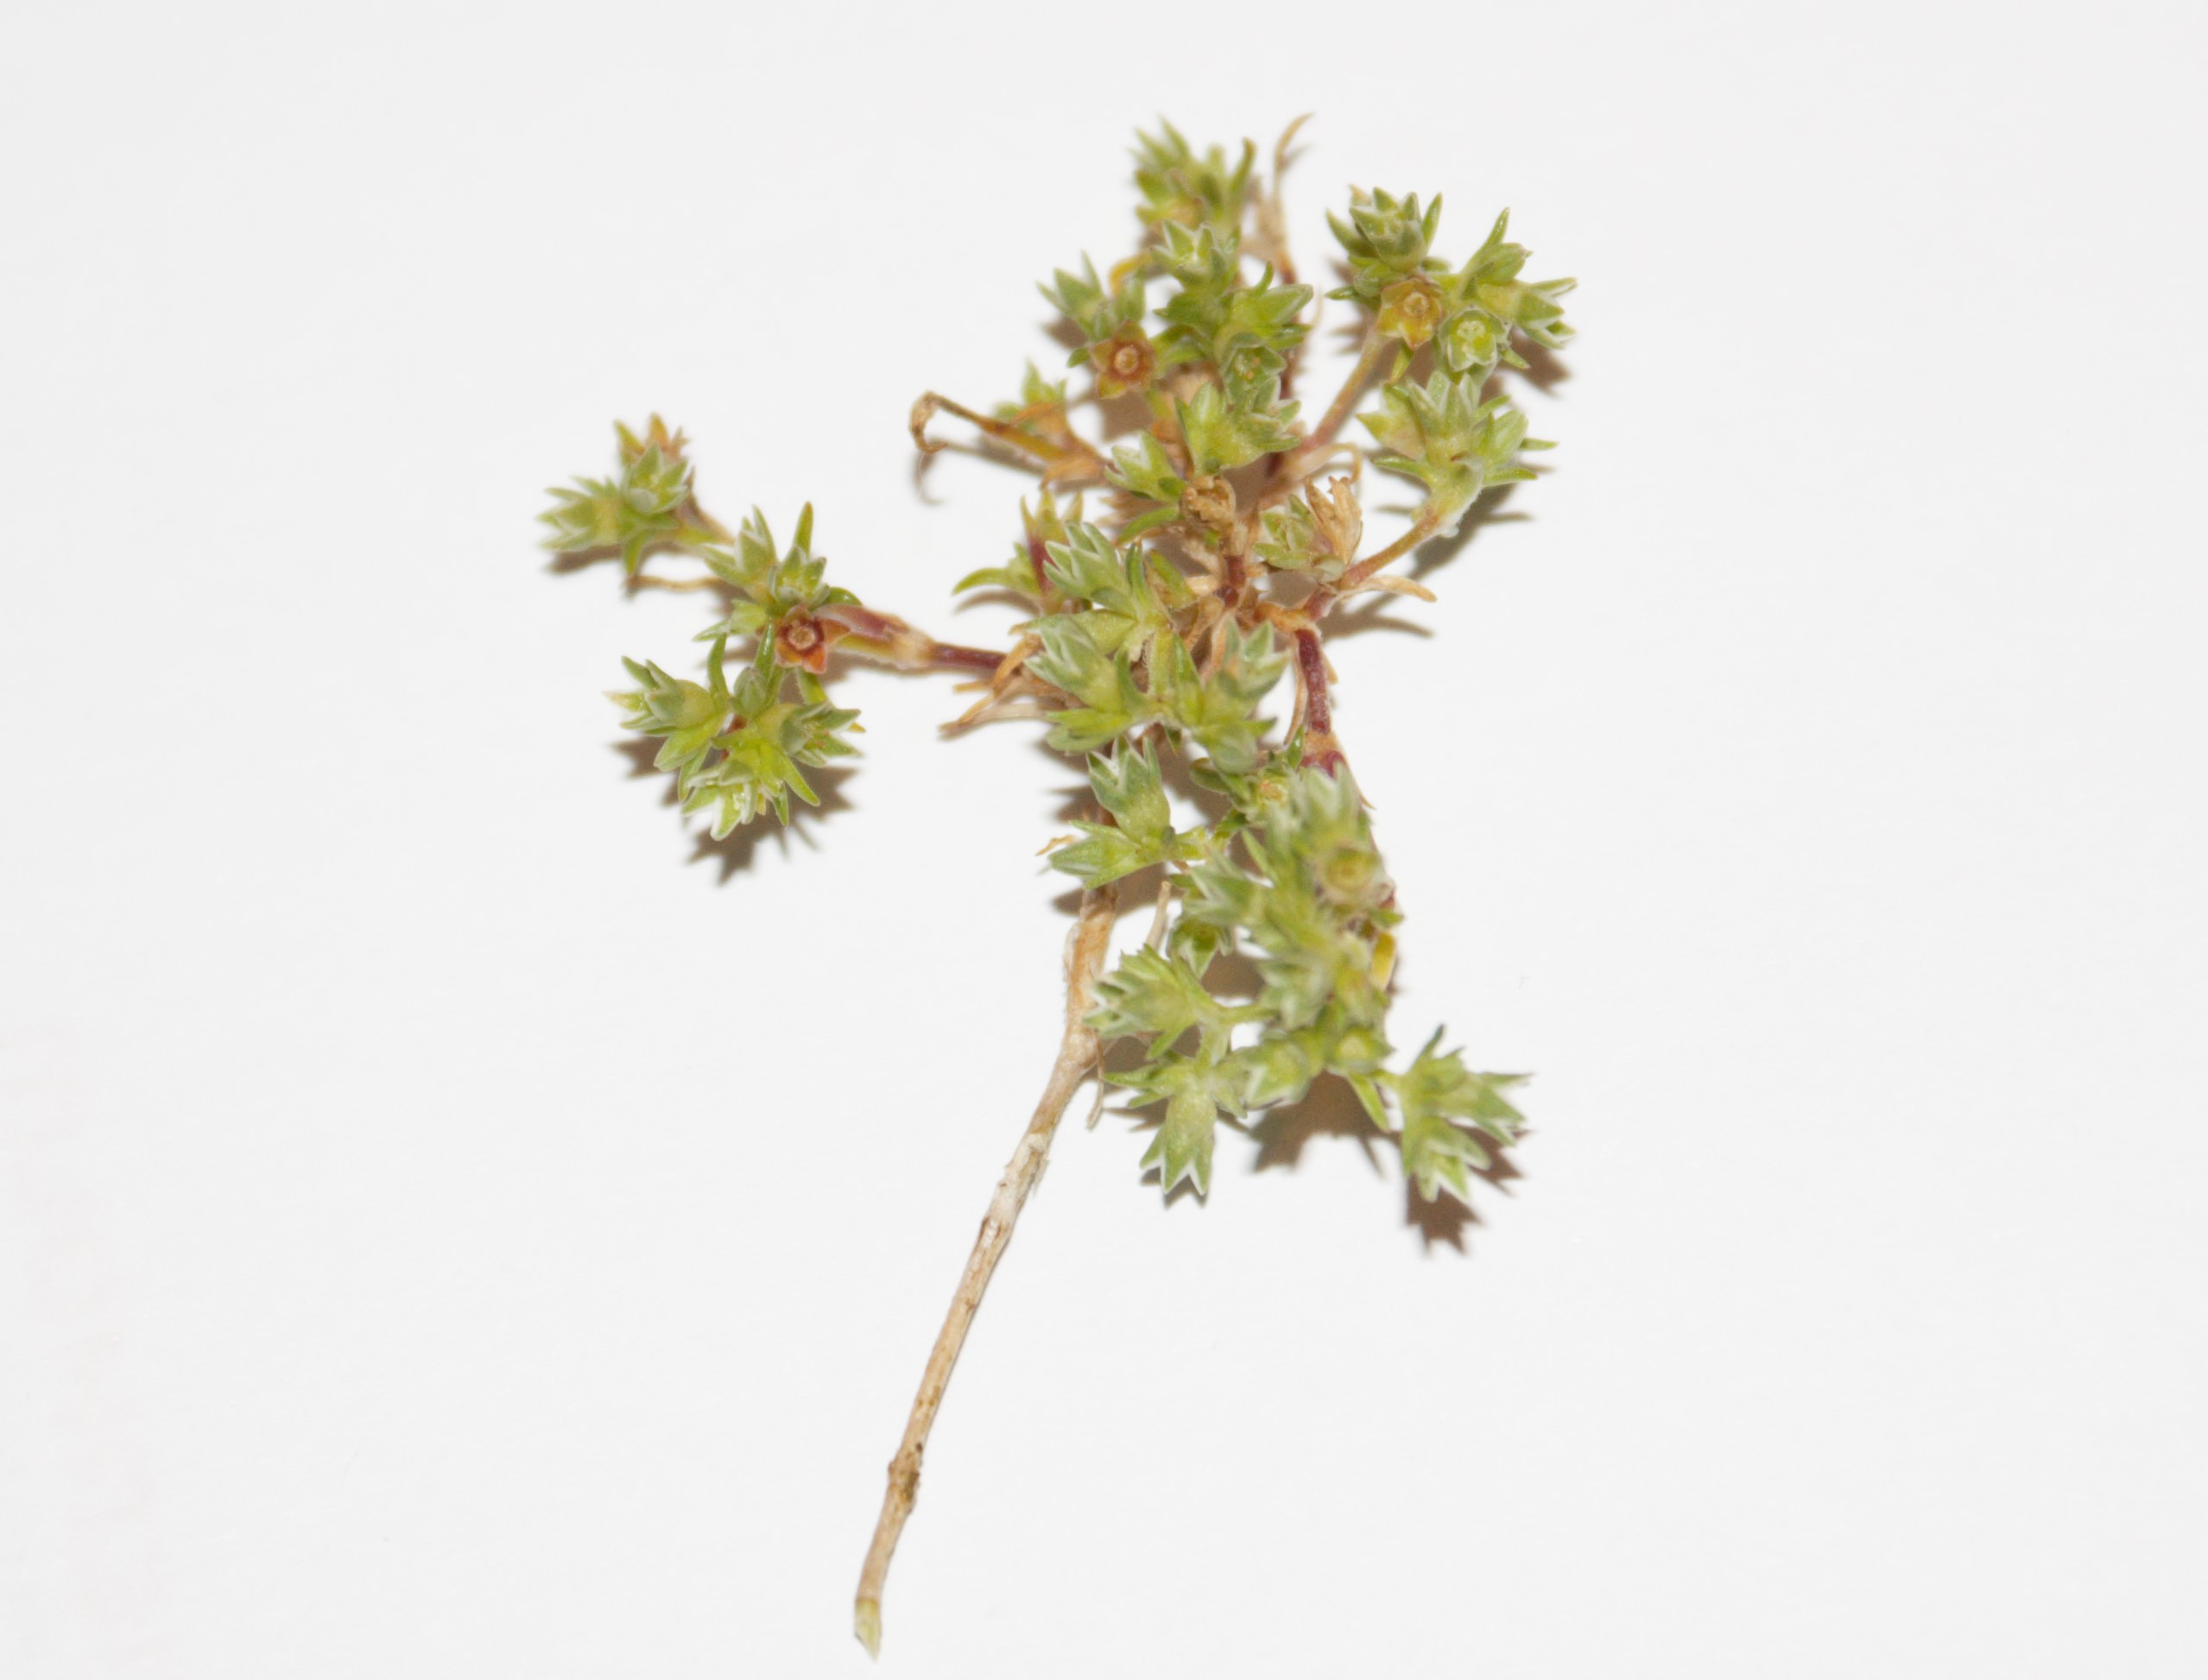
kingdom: Plantae
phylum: Tracheophyta
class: Magnoliopsida
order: Caryophyllales
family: Caryophyllaceae
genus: Scleranthus
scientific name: Scleranthus annuus
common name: Enårig knavel
